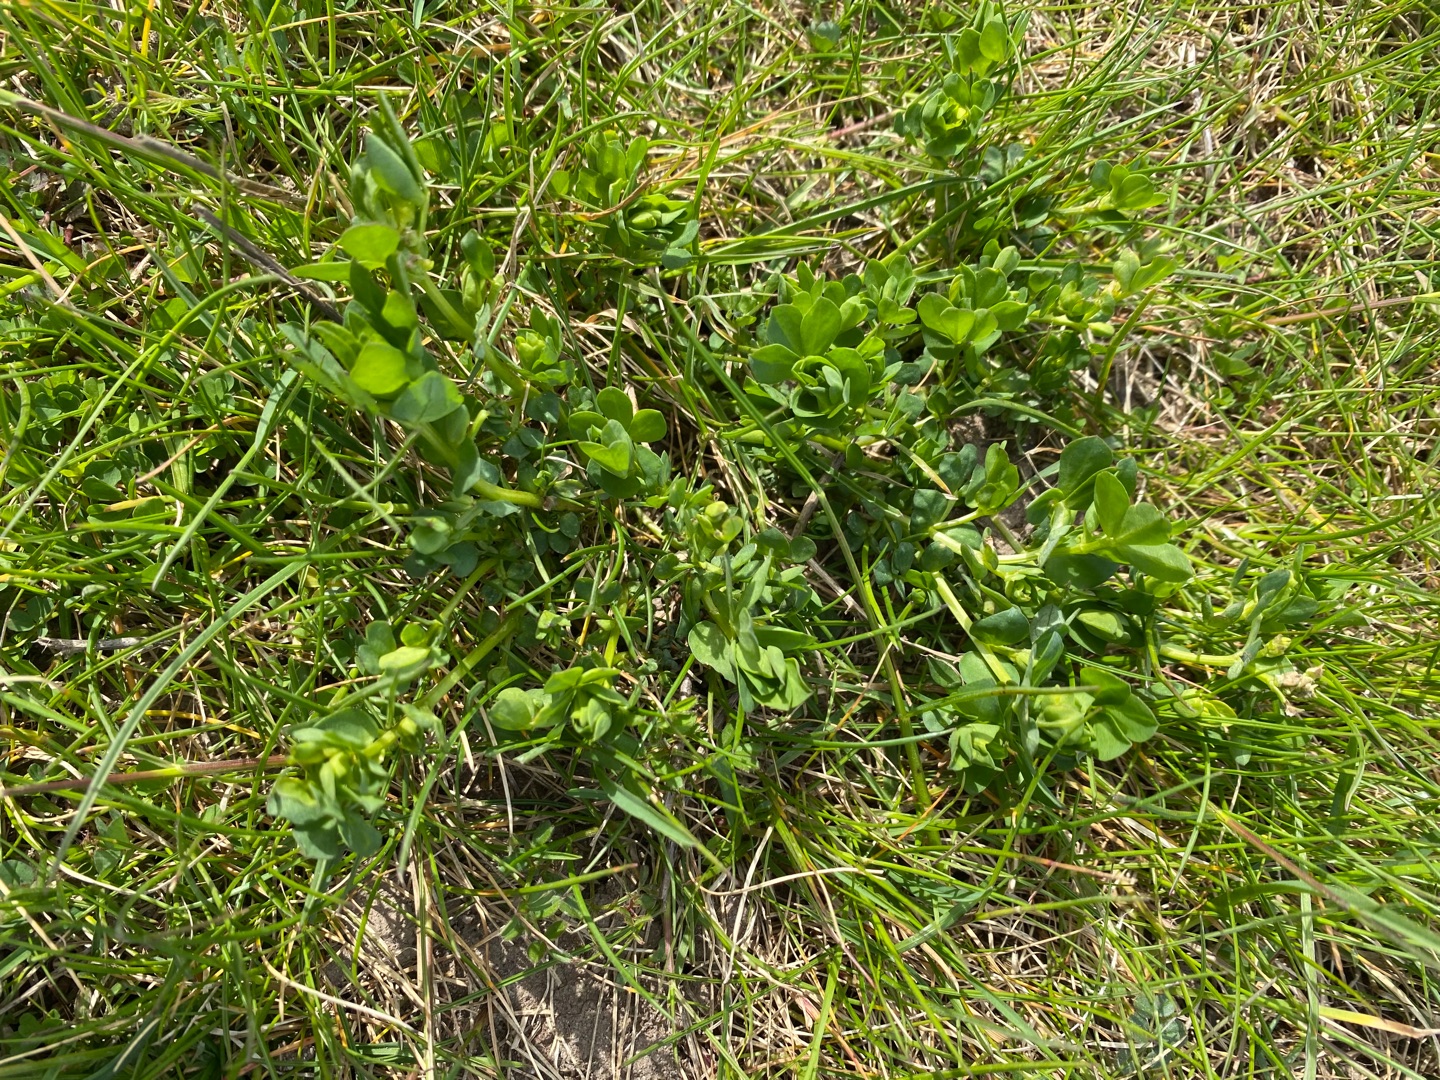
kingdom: Plantae
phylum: Tracheophyta
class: Magnoliopsida
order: Fabales
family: Fabaceae
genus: Lotus
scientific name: Lotus corniculatus
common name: Almindelig kællingetand
